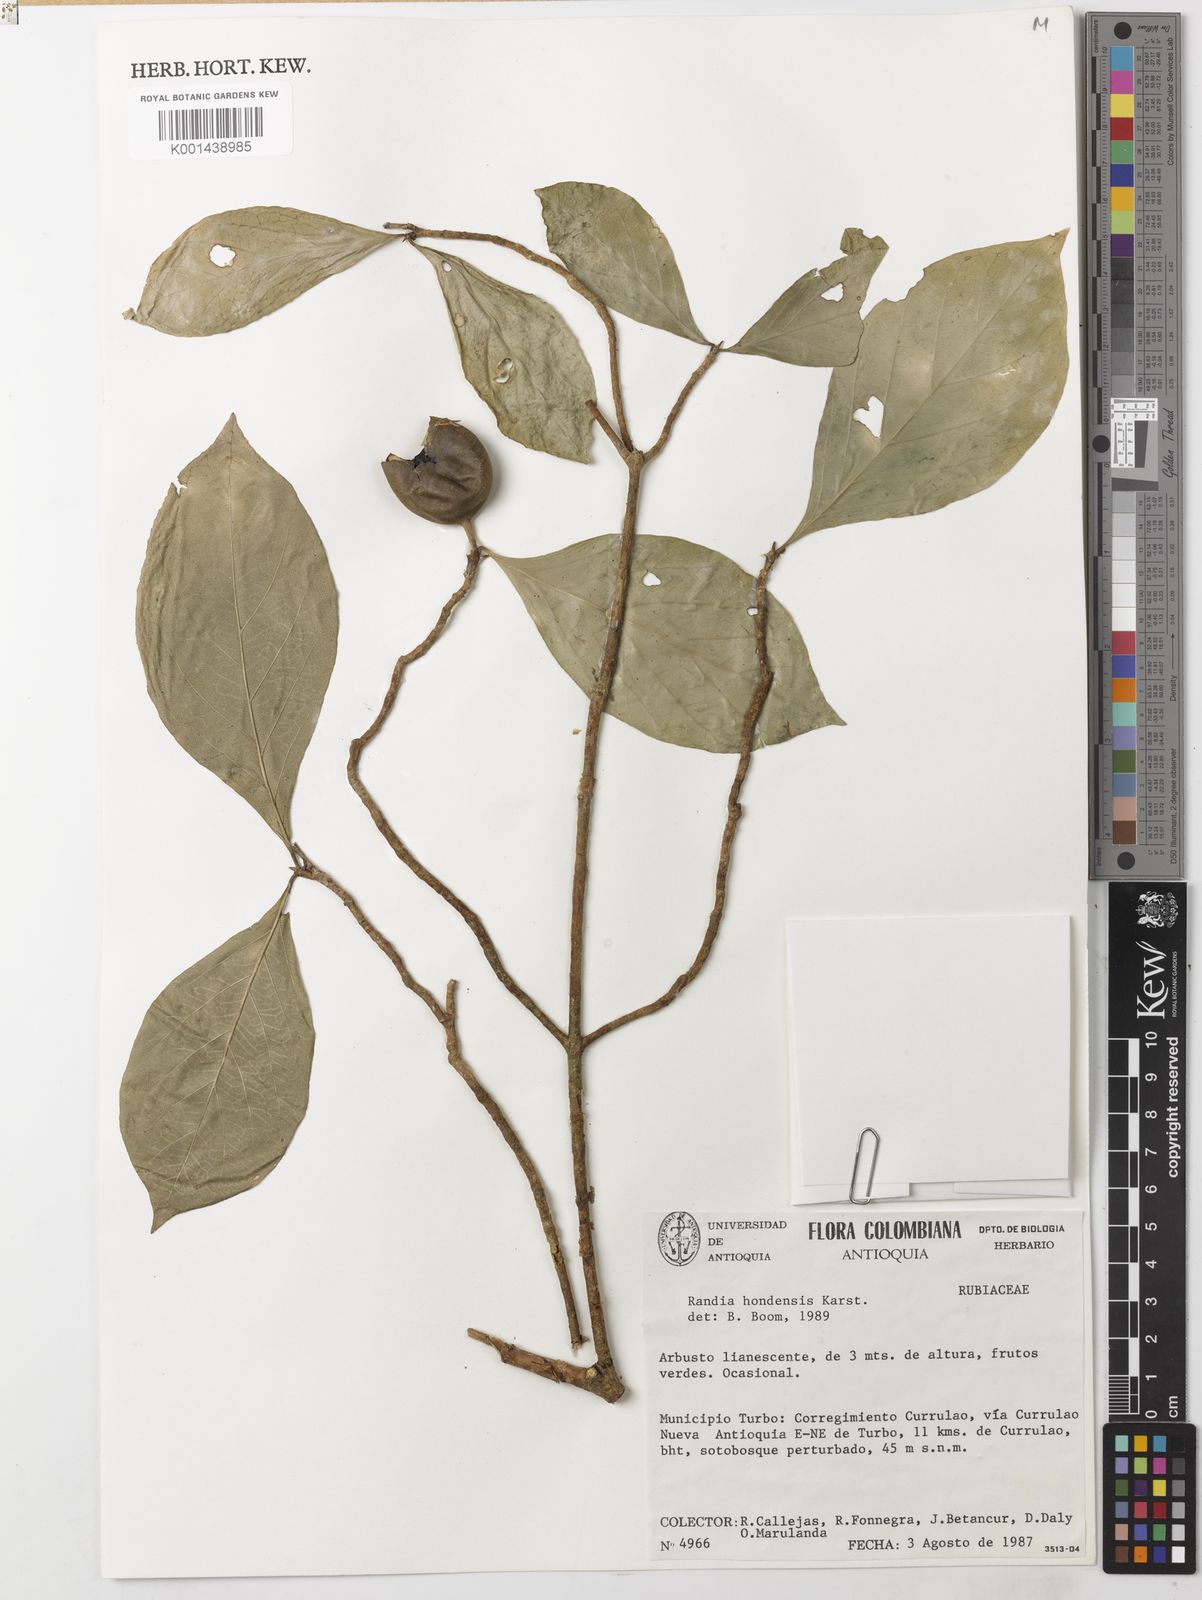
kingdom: Plantae
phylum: Tracheophyta
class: Magnoliopsida
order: Gentianales
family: Rubiaceae
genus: Randia
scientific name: Randia hondensis
